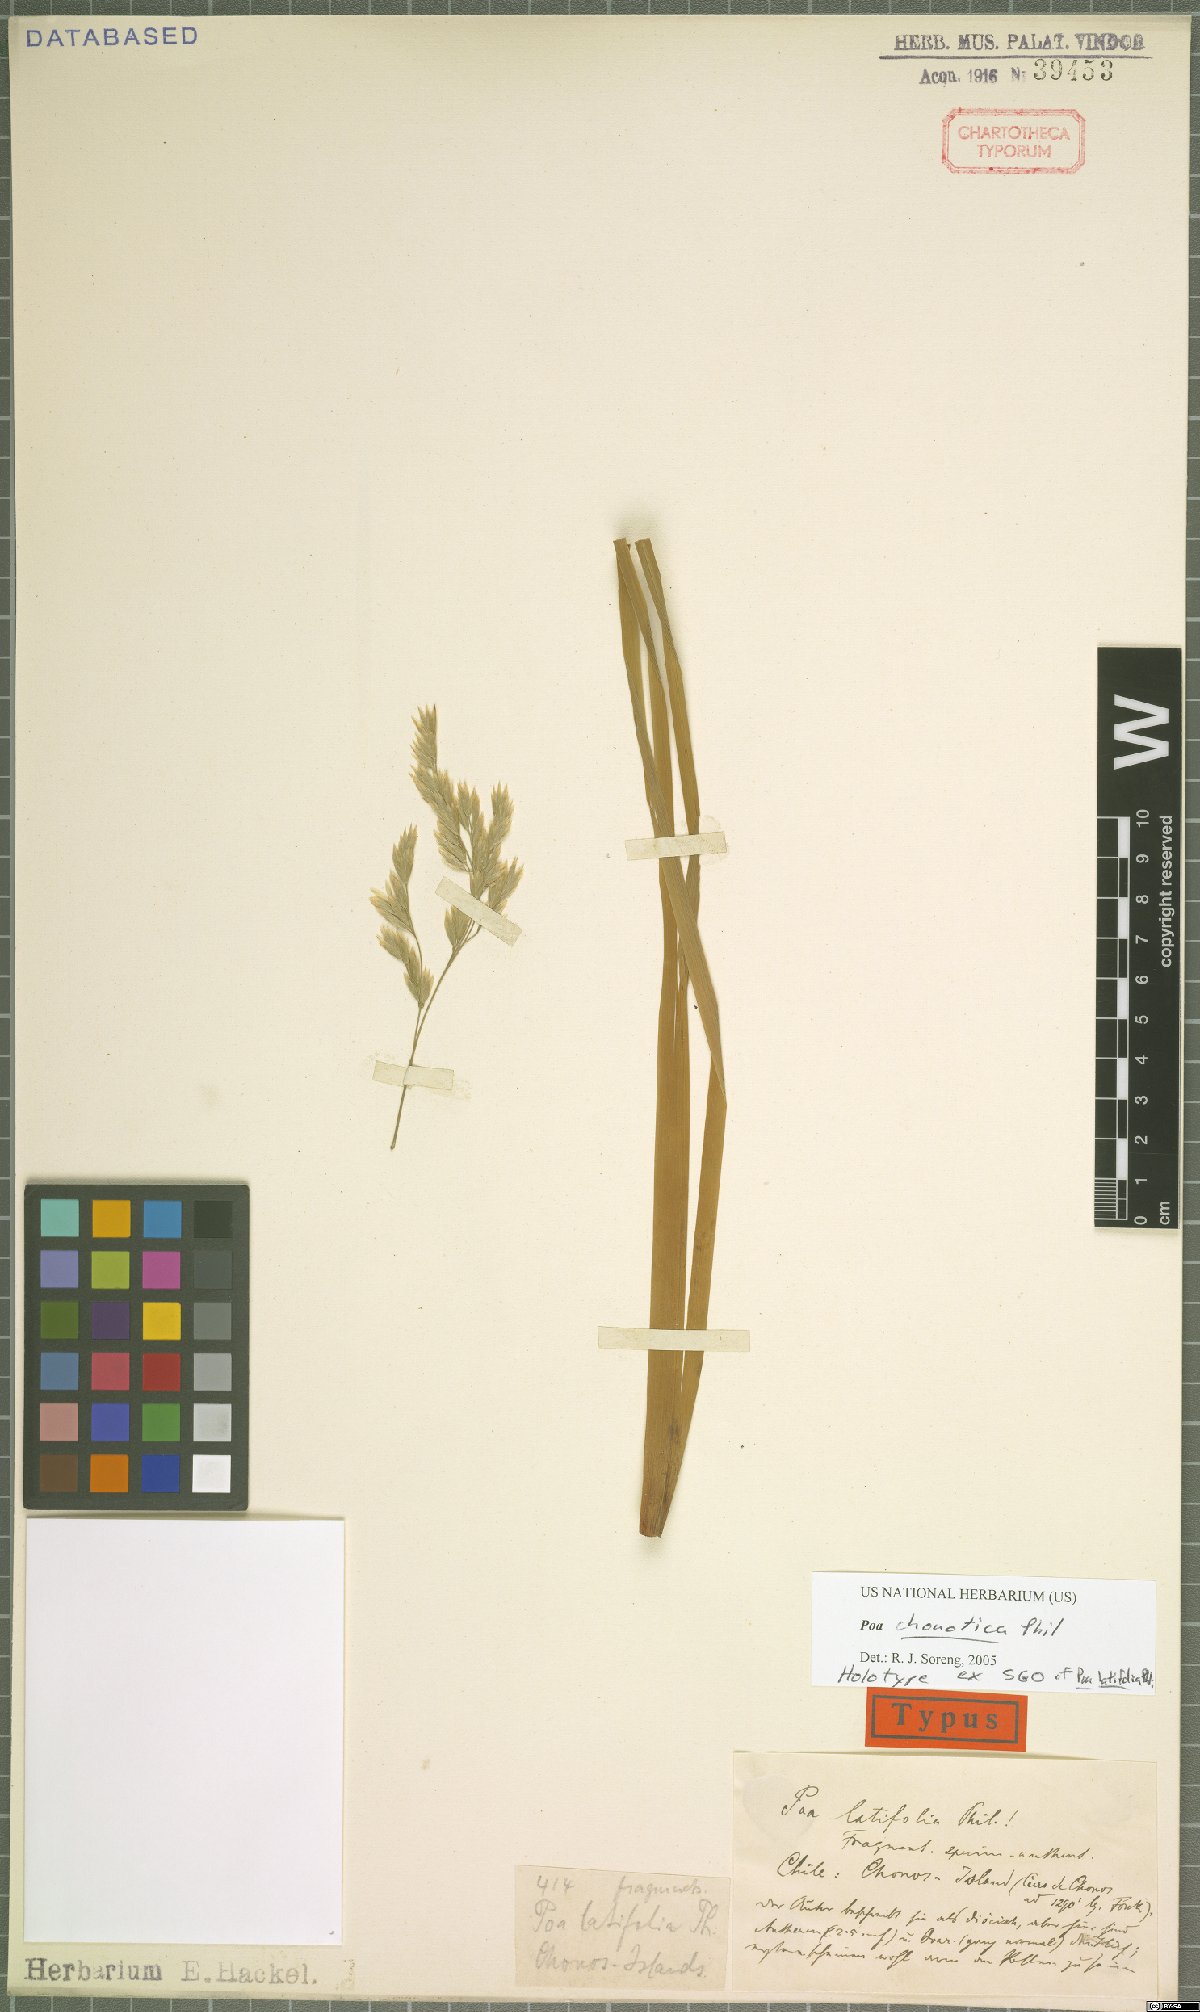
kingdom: Plantae
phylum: Tracheophyta
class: Liliopsida
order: Poales
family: Poaceae
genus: Nicoraepoa
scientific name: Nicoraepoa chonotica
